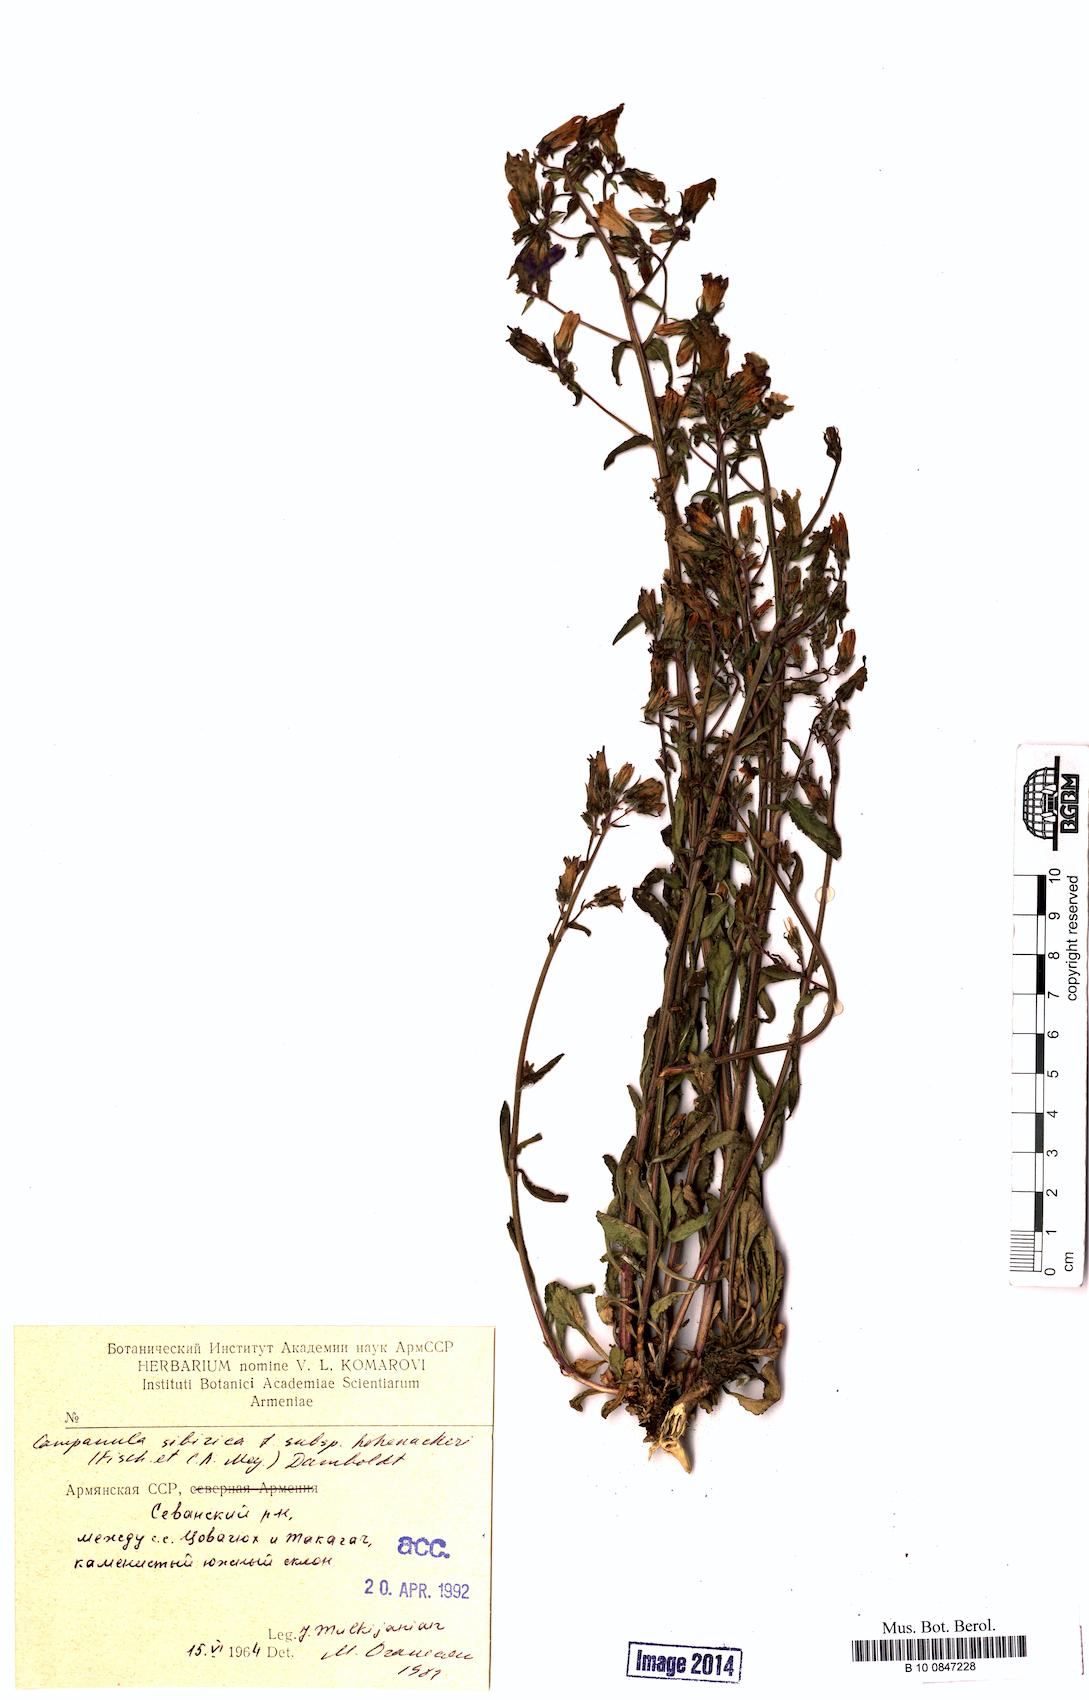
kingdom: Plantae
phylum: Tracheophyta
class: Magnoliopsida
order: Asterales
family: Campanulaceae
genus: Campanula
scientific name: Campanula sibirica
